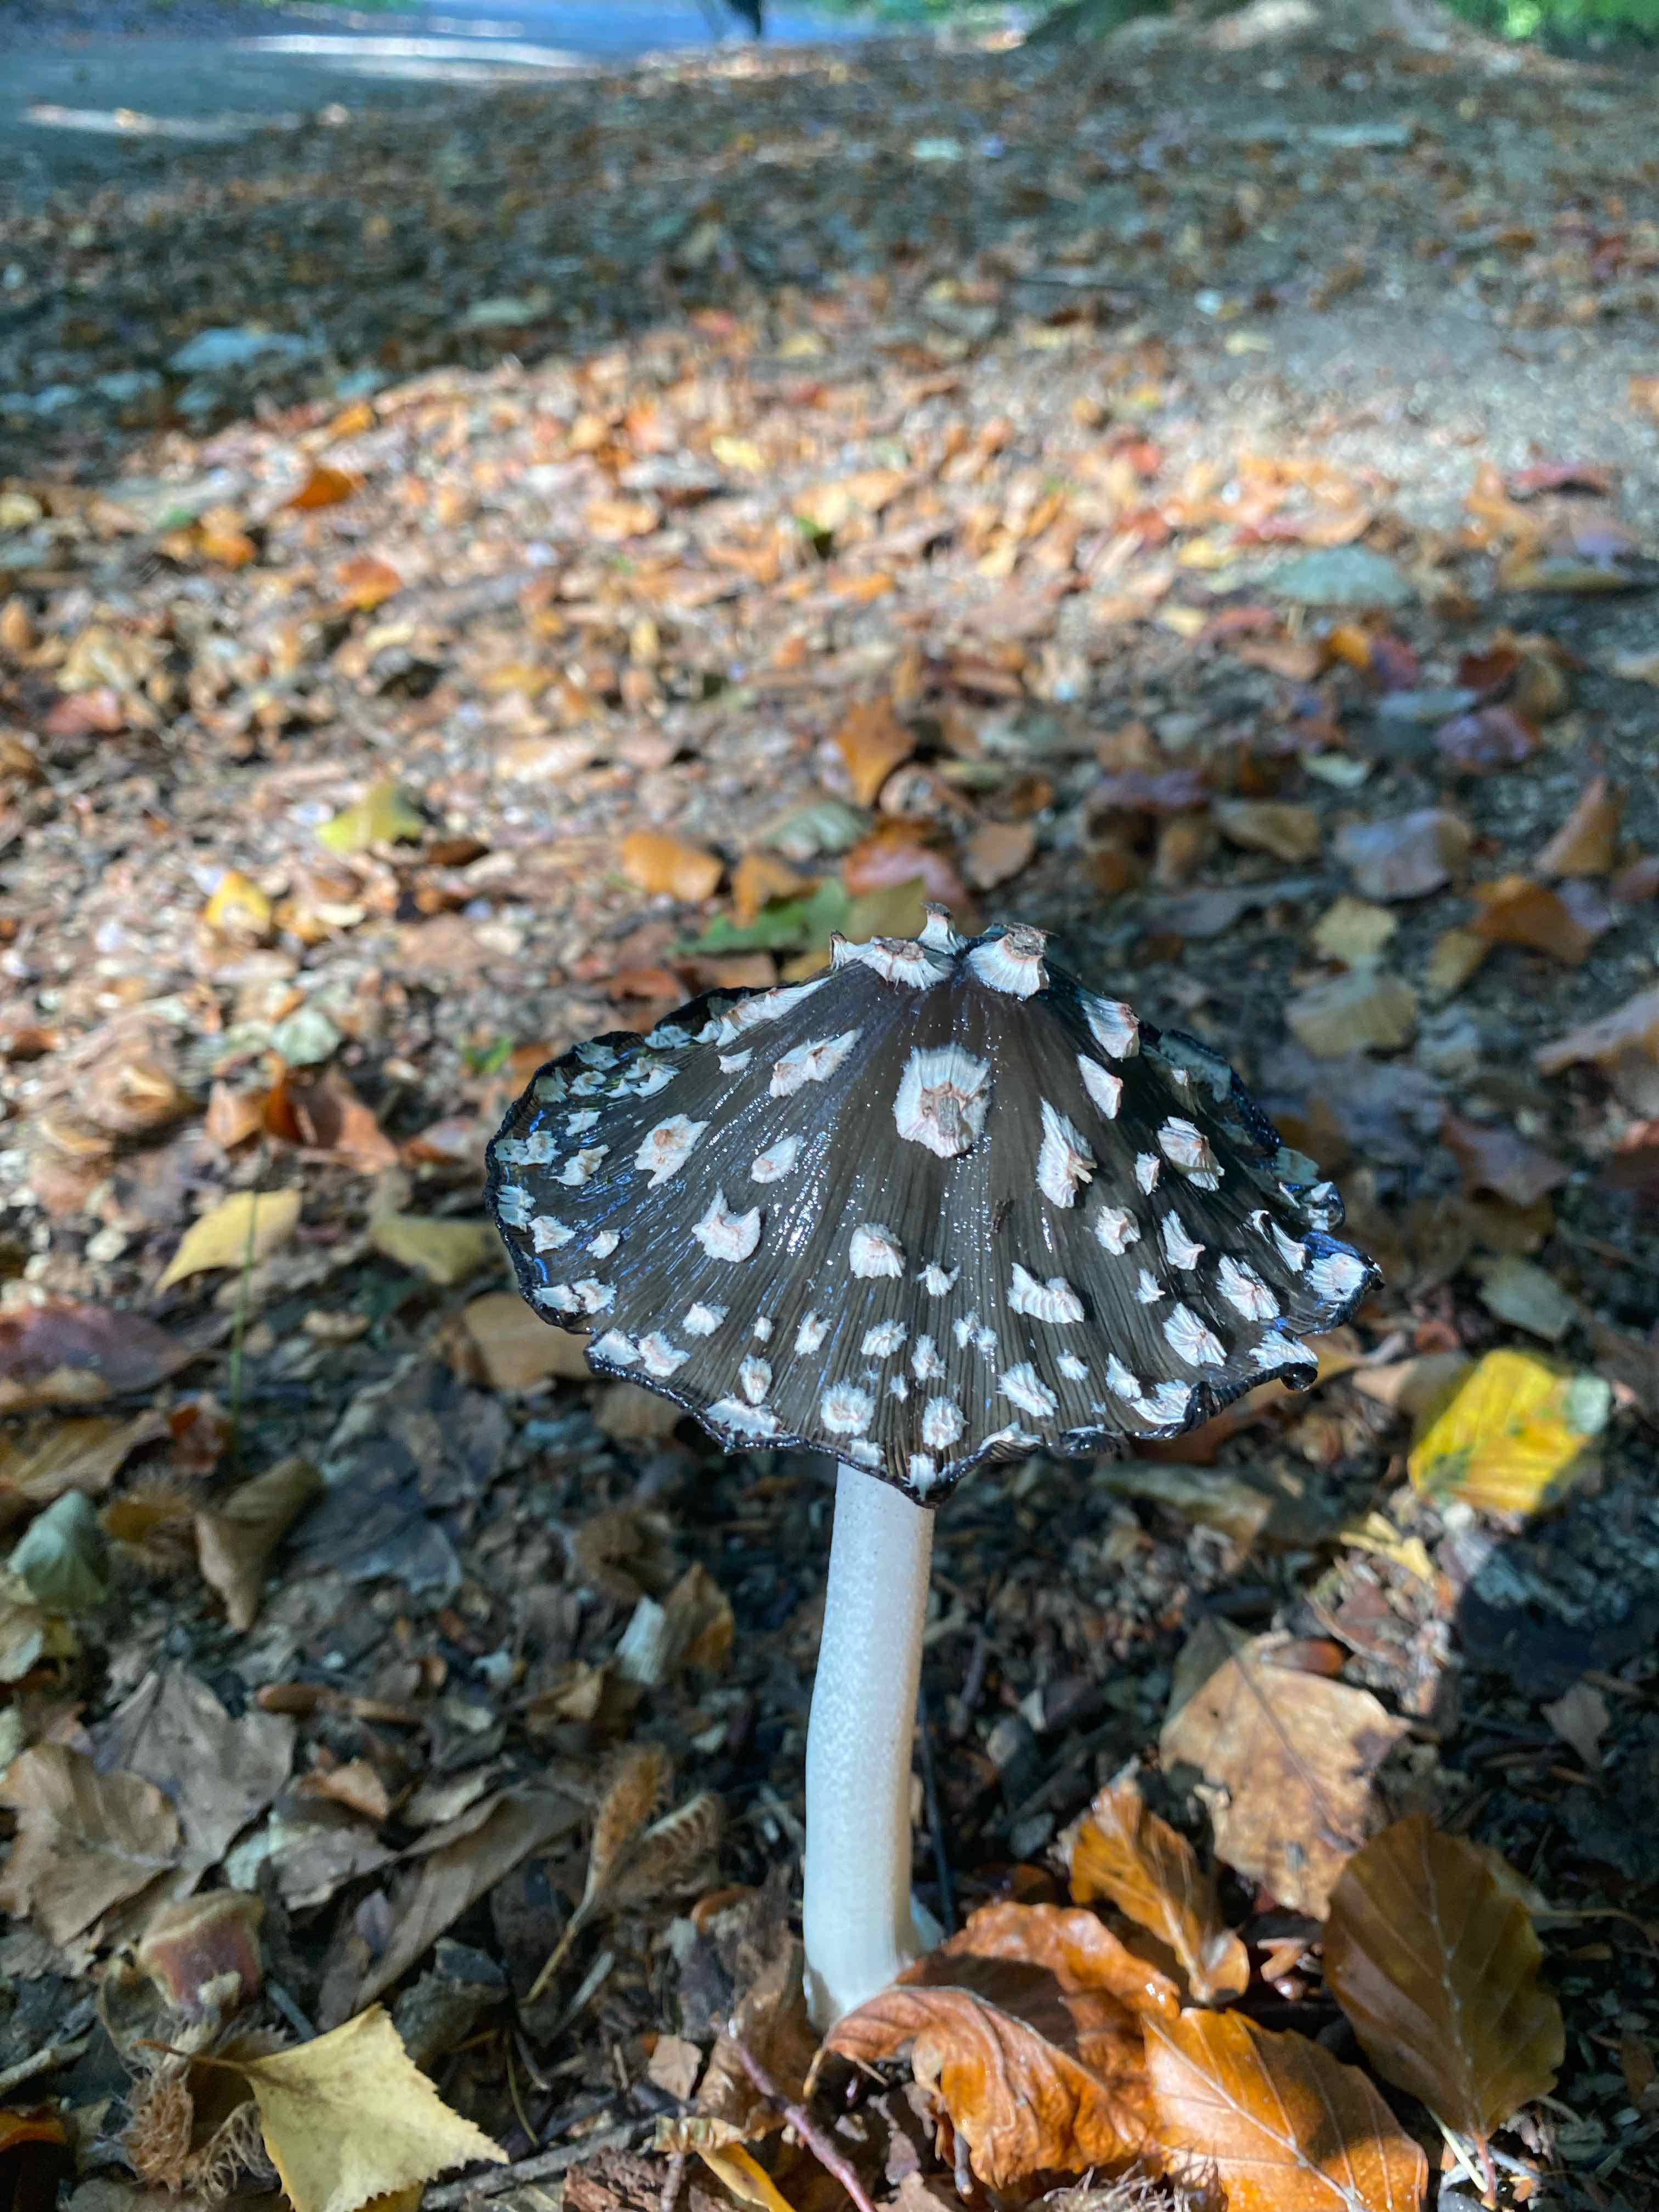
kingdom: Fungi
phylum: Basidiomycota
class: Agaricomycetes
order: Agaricales
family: Psathyrellaceae
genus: Coprinopsis
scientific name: Coprinopsis picacea
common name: skade-blækhat
